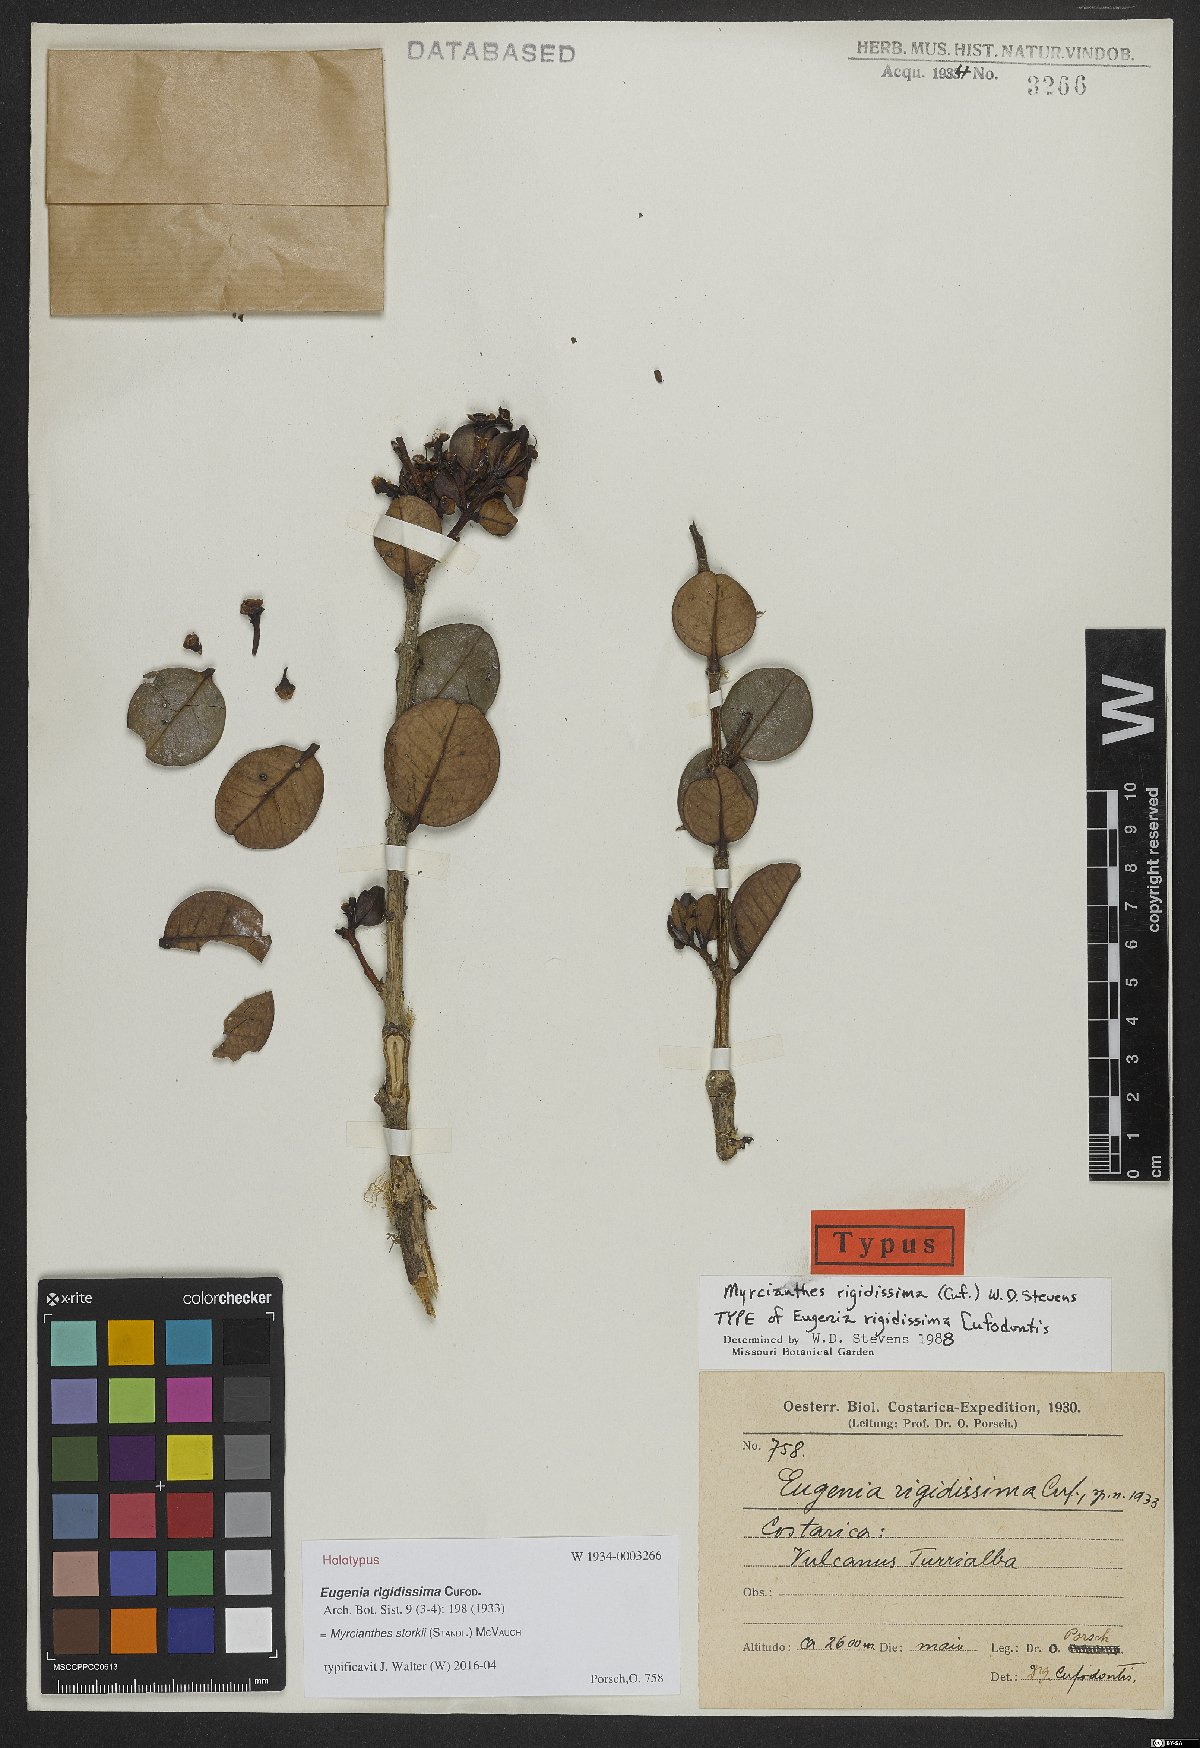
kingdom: Plantae
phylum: Tracheophyta
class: Magnoliopsida
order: Myrtales
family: Myrtaceae
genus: Myrcianthes
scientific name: Myrcianthes storkii
